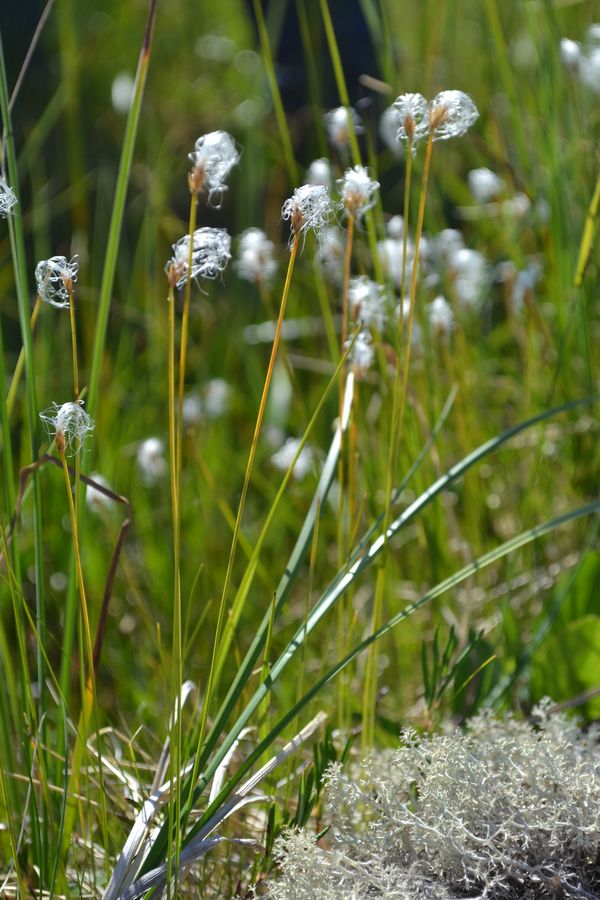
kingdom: Plantae
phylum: Tracheophyta
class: Liliopsida
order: Poales
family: Cyperaceae
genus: Eriophorum
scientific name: Eriophorum latifolium
